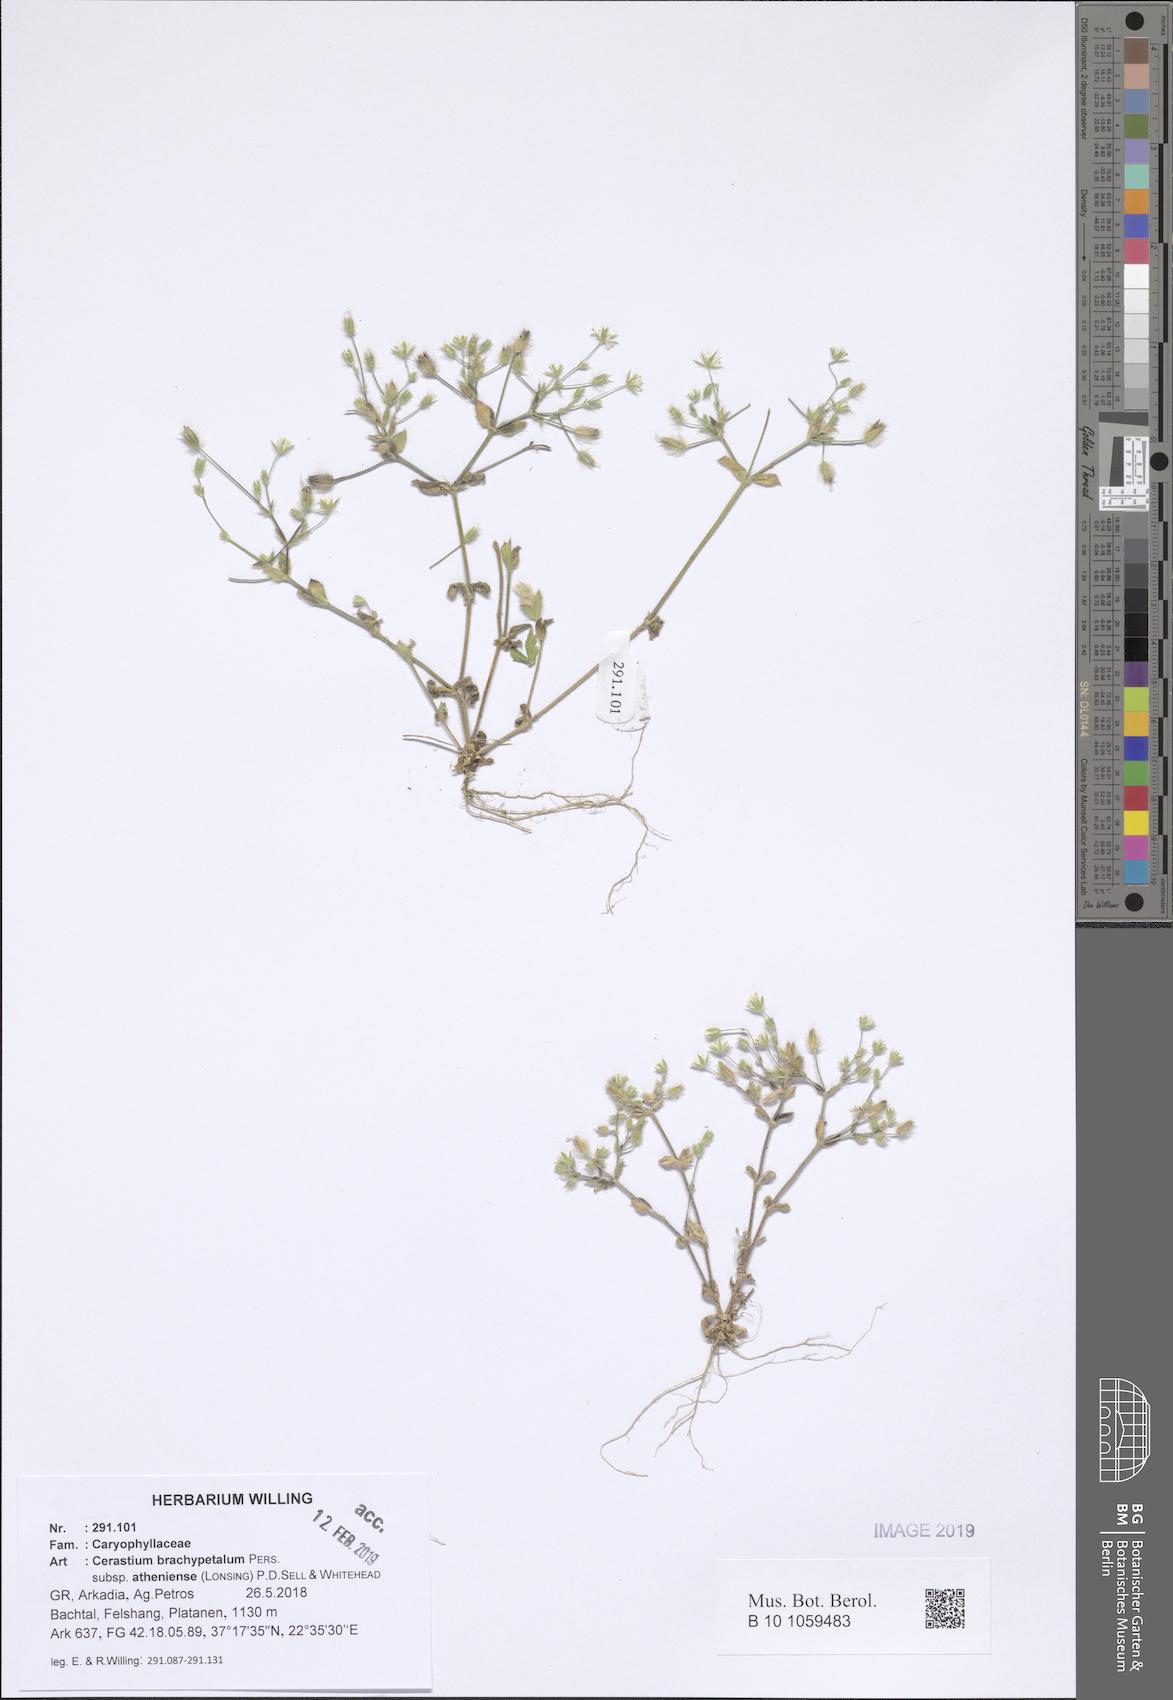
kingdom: Plantae
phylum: Tracheophyta
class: Magnoliopsida
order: Caryophyllales
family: Caryophyllaceae
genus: Cerastium
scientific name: Cerastium brachypetalum
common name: Grey mouse-ear
